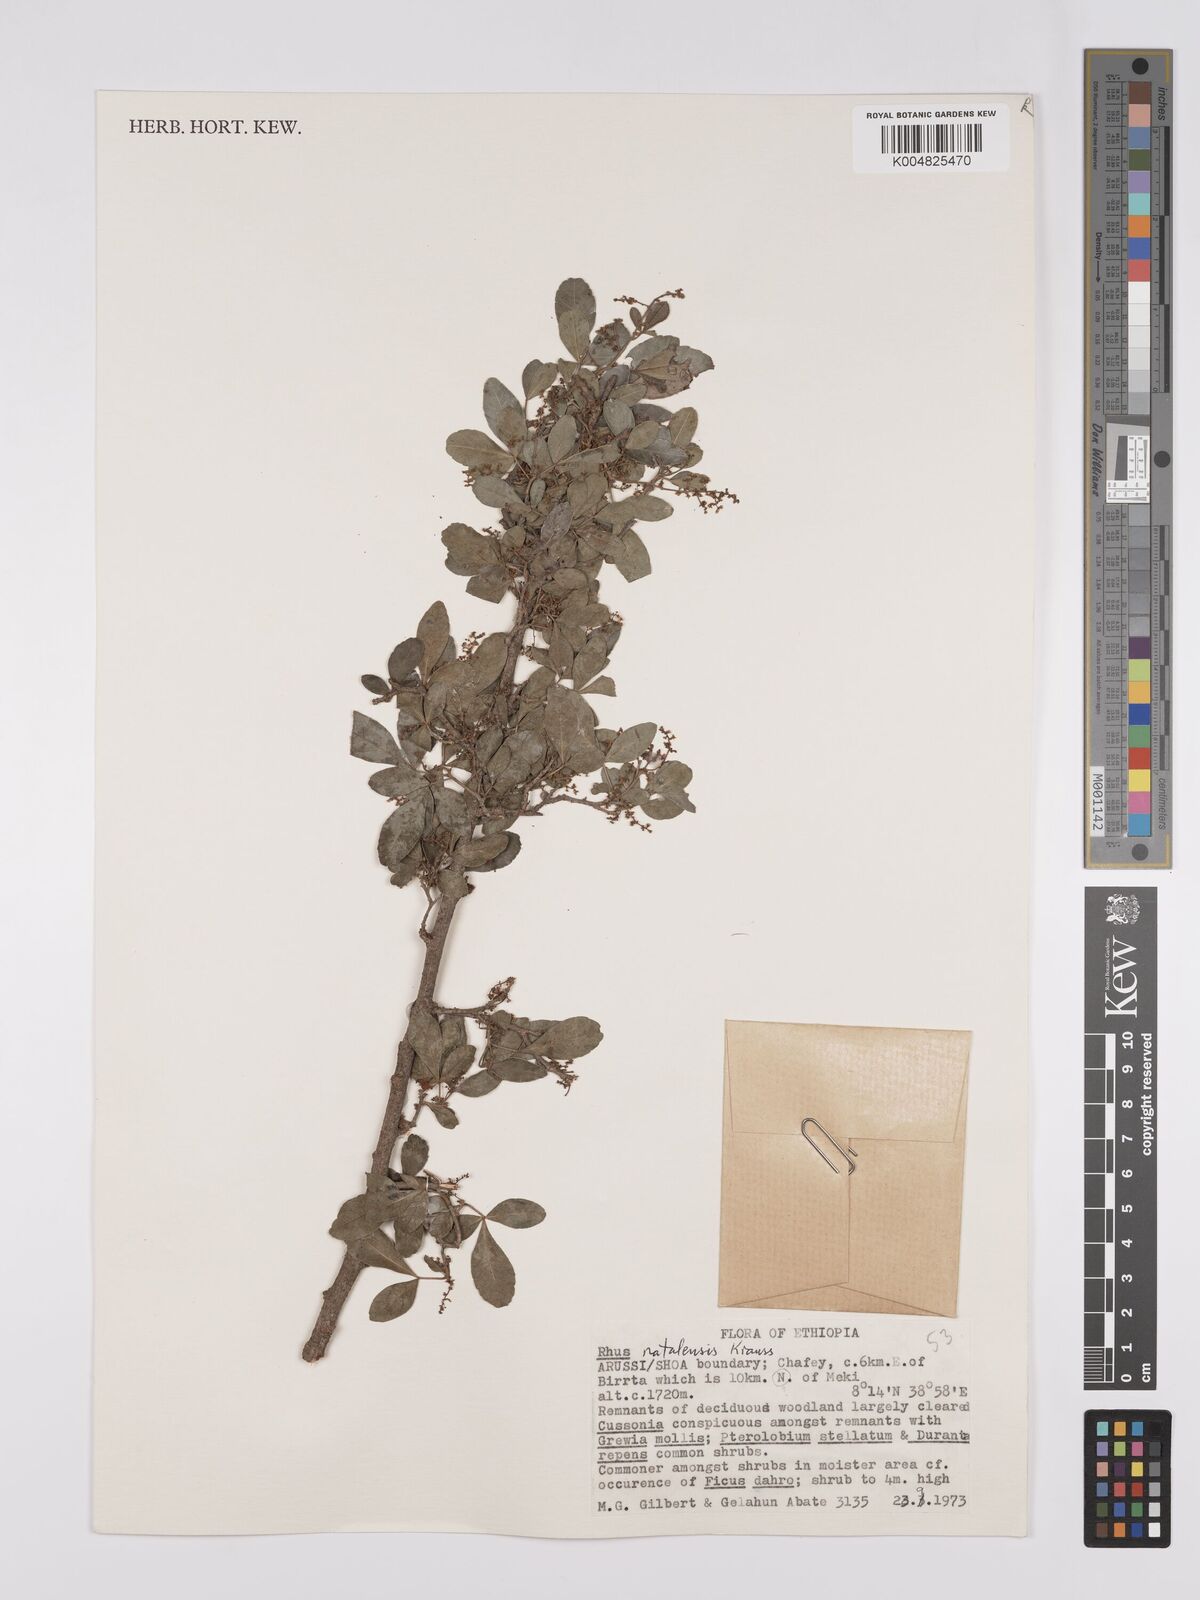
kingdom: Plantae
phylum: Tracheophyta
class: Magnoliopsida
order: Sapindales
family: Anacardiaceae
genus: Searsia
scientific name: Searsia natalensis
